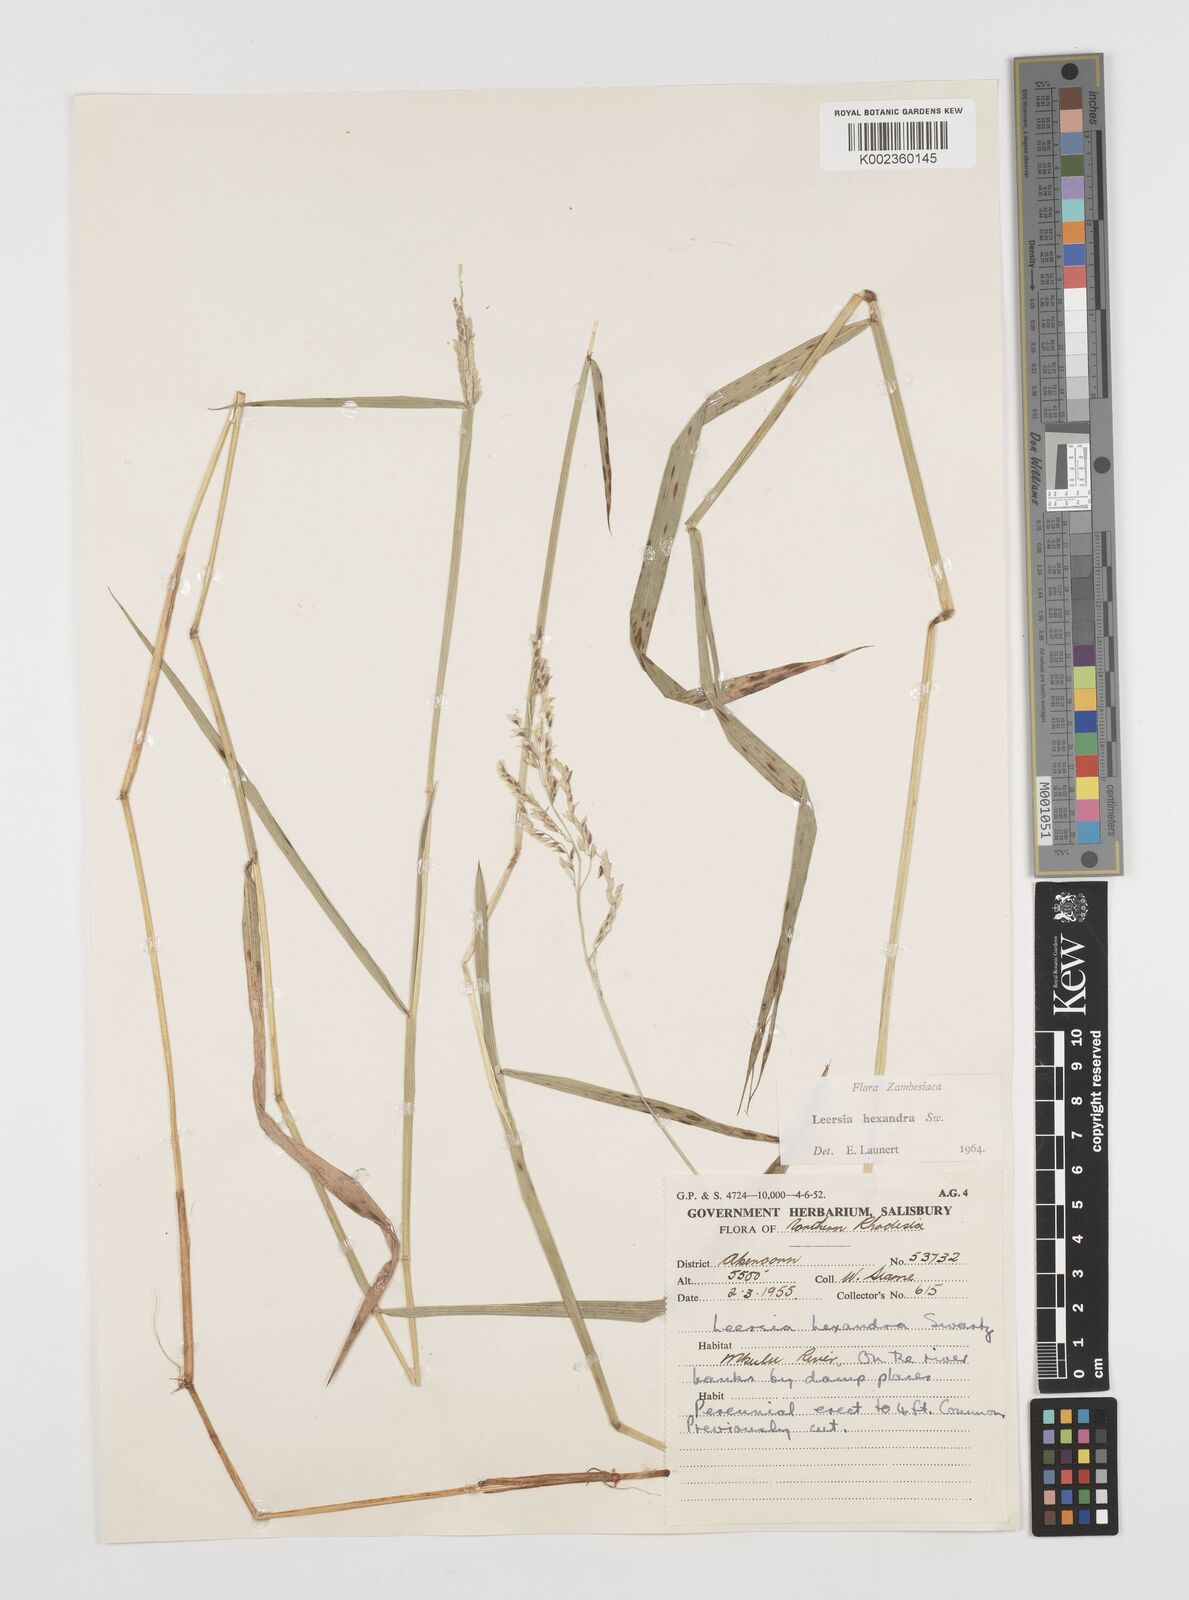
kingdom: Plantae
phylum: Tracheophyta
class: Liliopsida
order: Poales
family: Poaceae
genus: Leersia
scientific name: Leersia hexandra
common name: Southern cut grass
